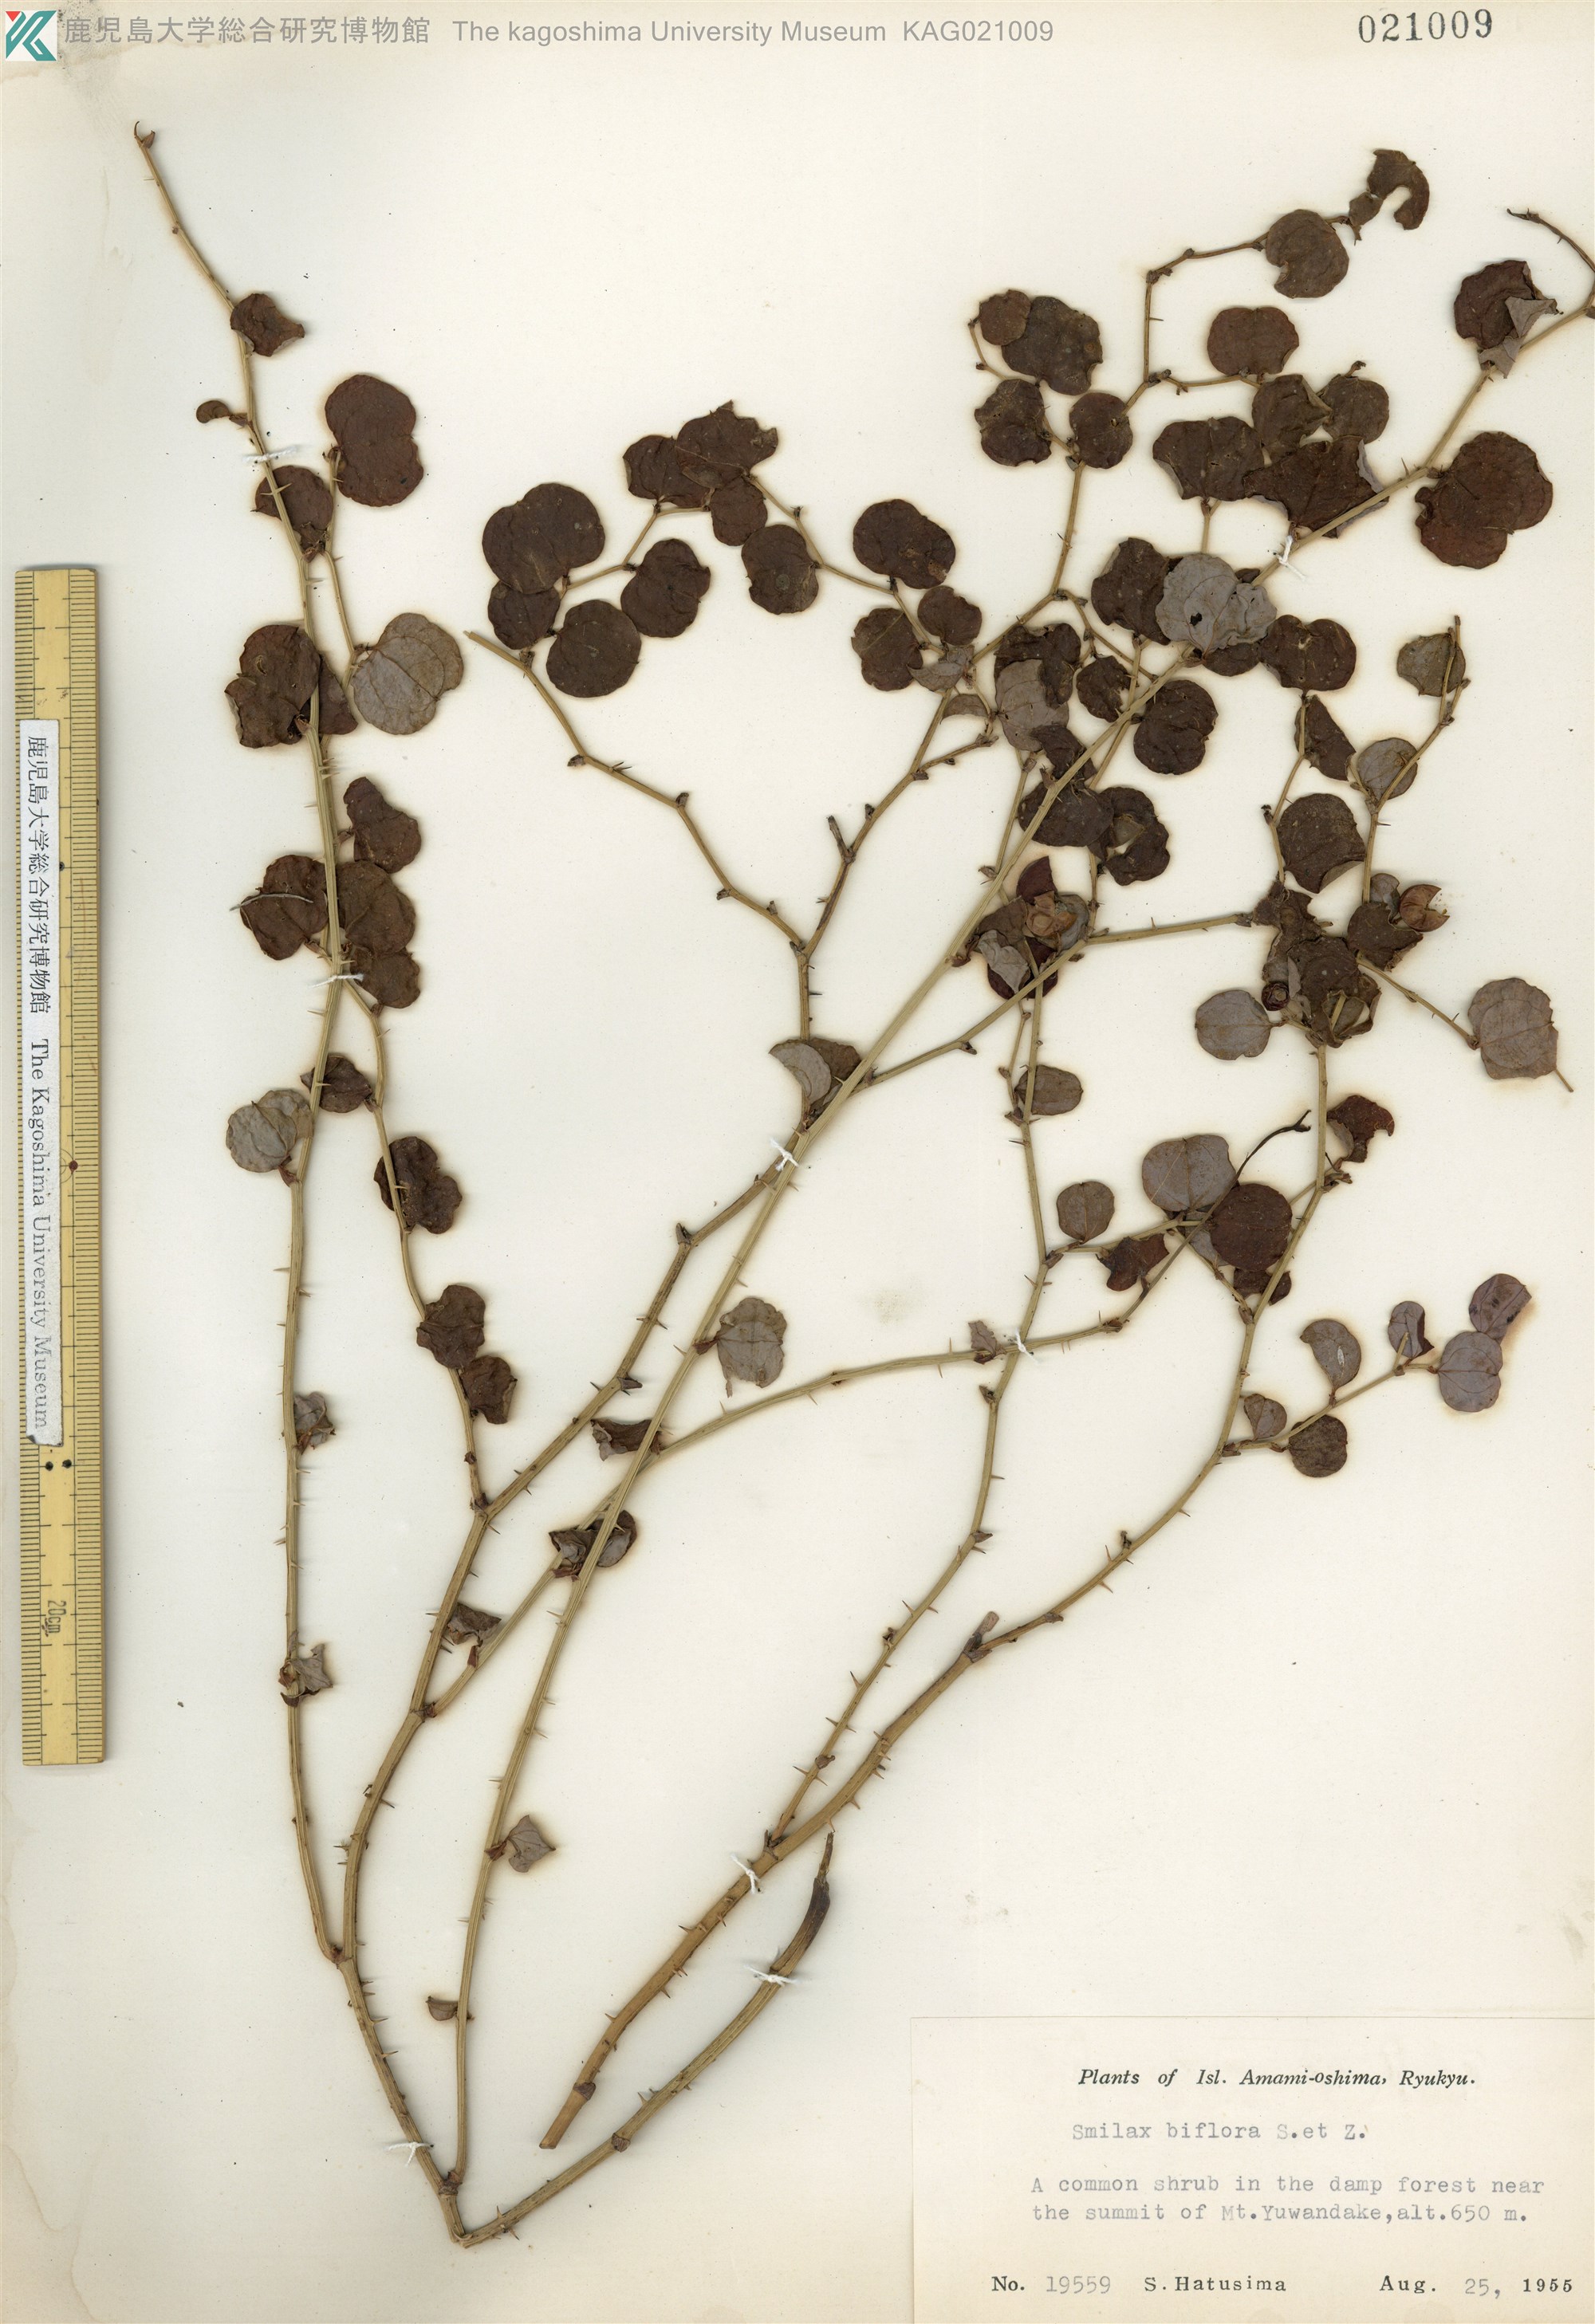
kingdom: Plantae
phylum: Tracheophyta
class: Liliopsida
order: Liliales
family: Smilacaceae
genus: Smilax
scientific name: Smilax amamiana
